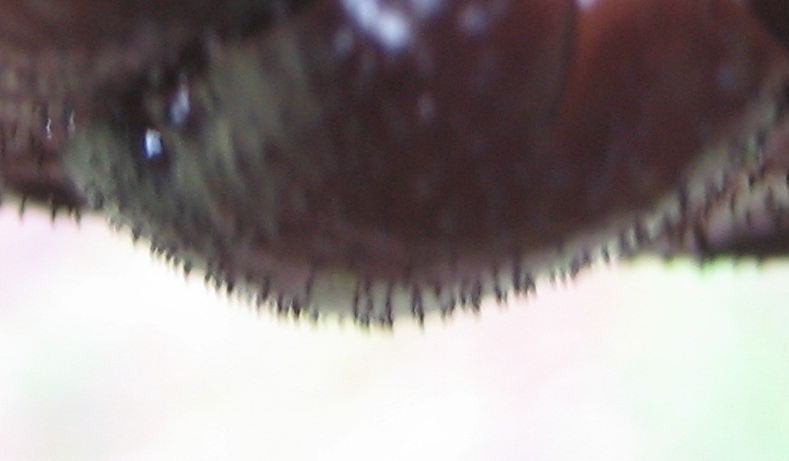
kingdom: Fungi
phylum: Basidiomycota
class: Agaricomycetes
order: Auriculariales
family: Auriculariaceae
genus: Exidia
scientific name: Exidia glandulosa
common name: ege-bævretop
